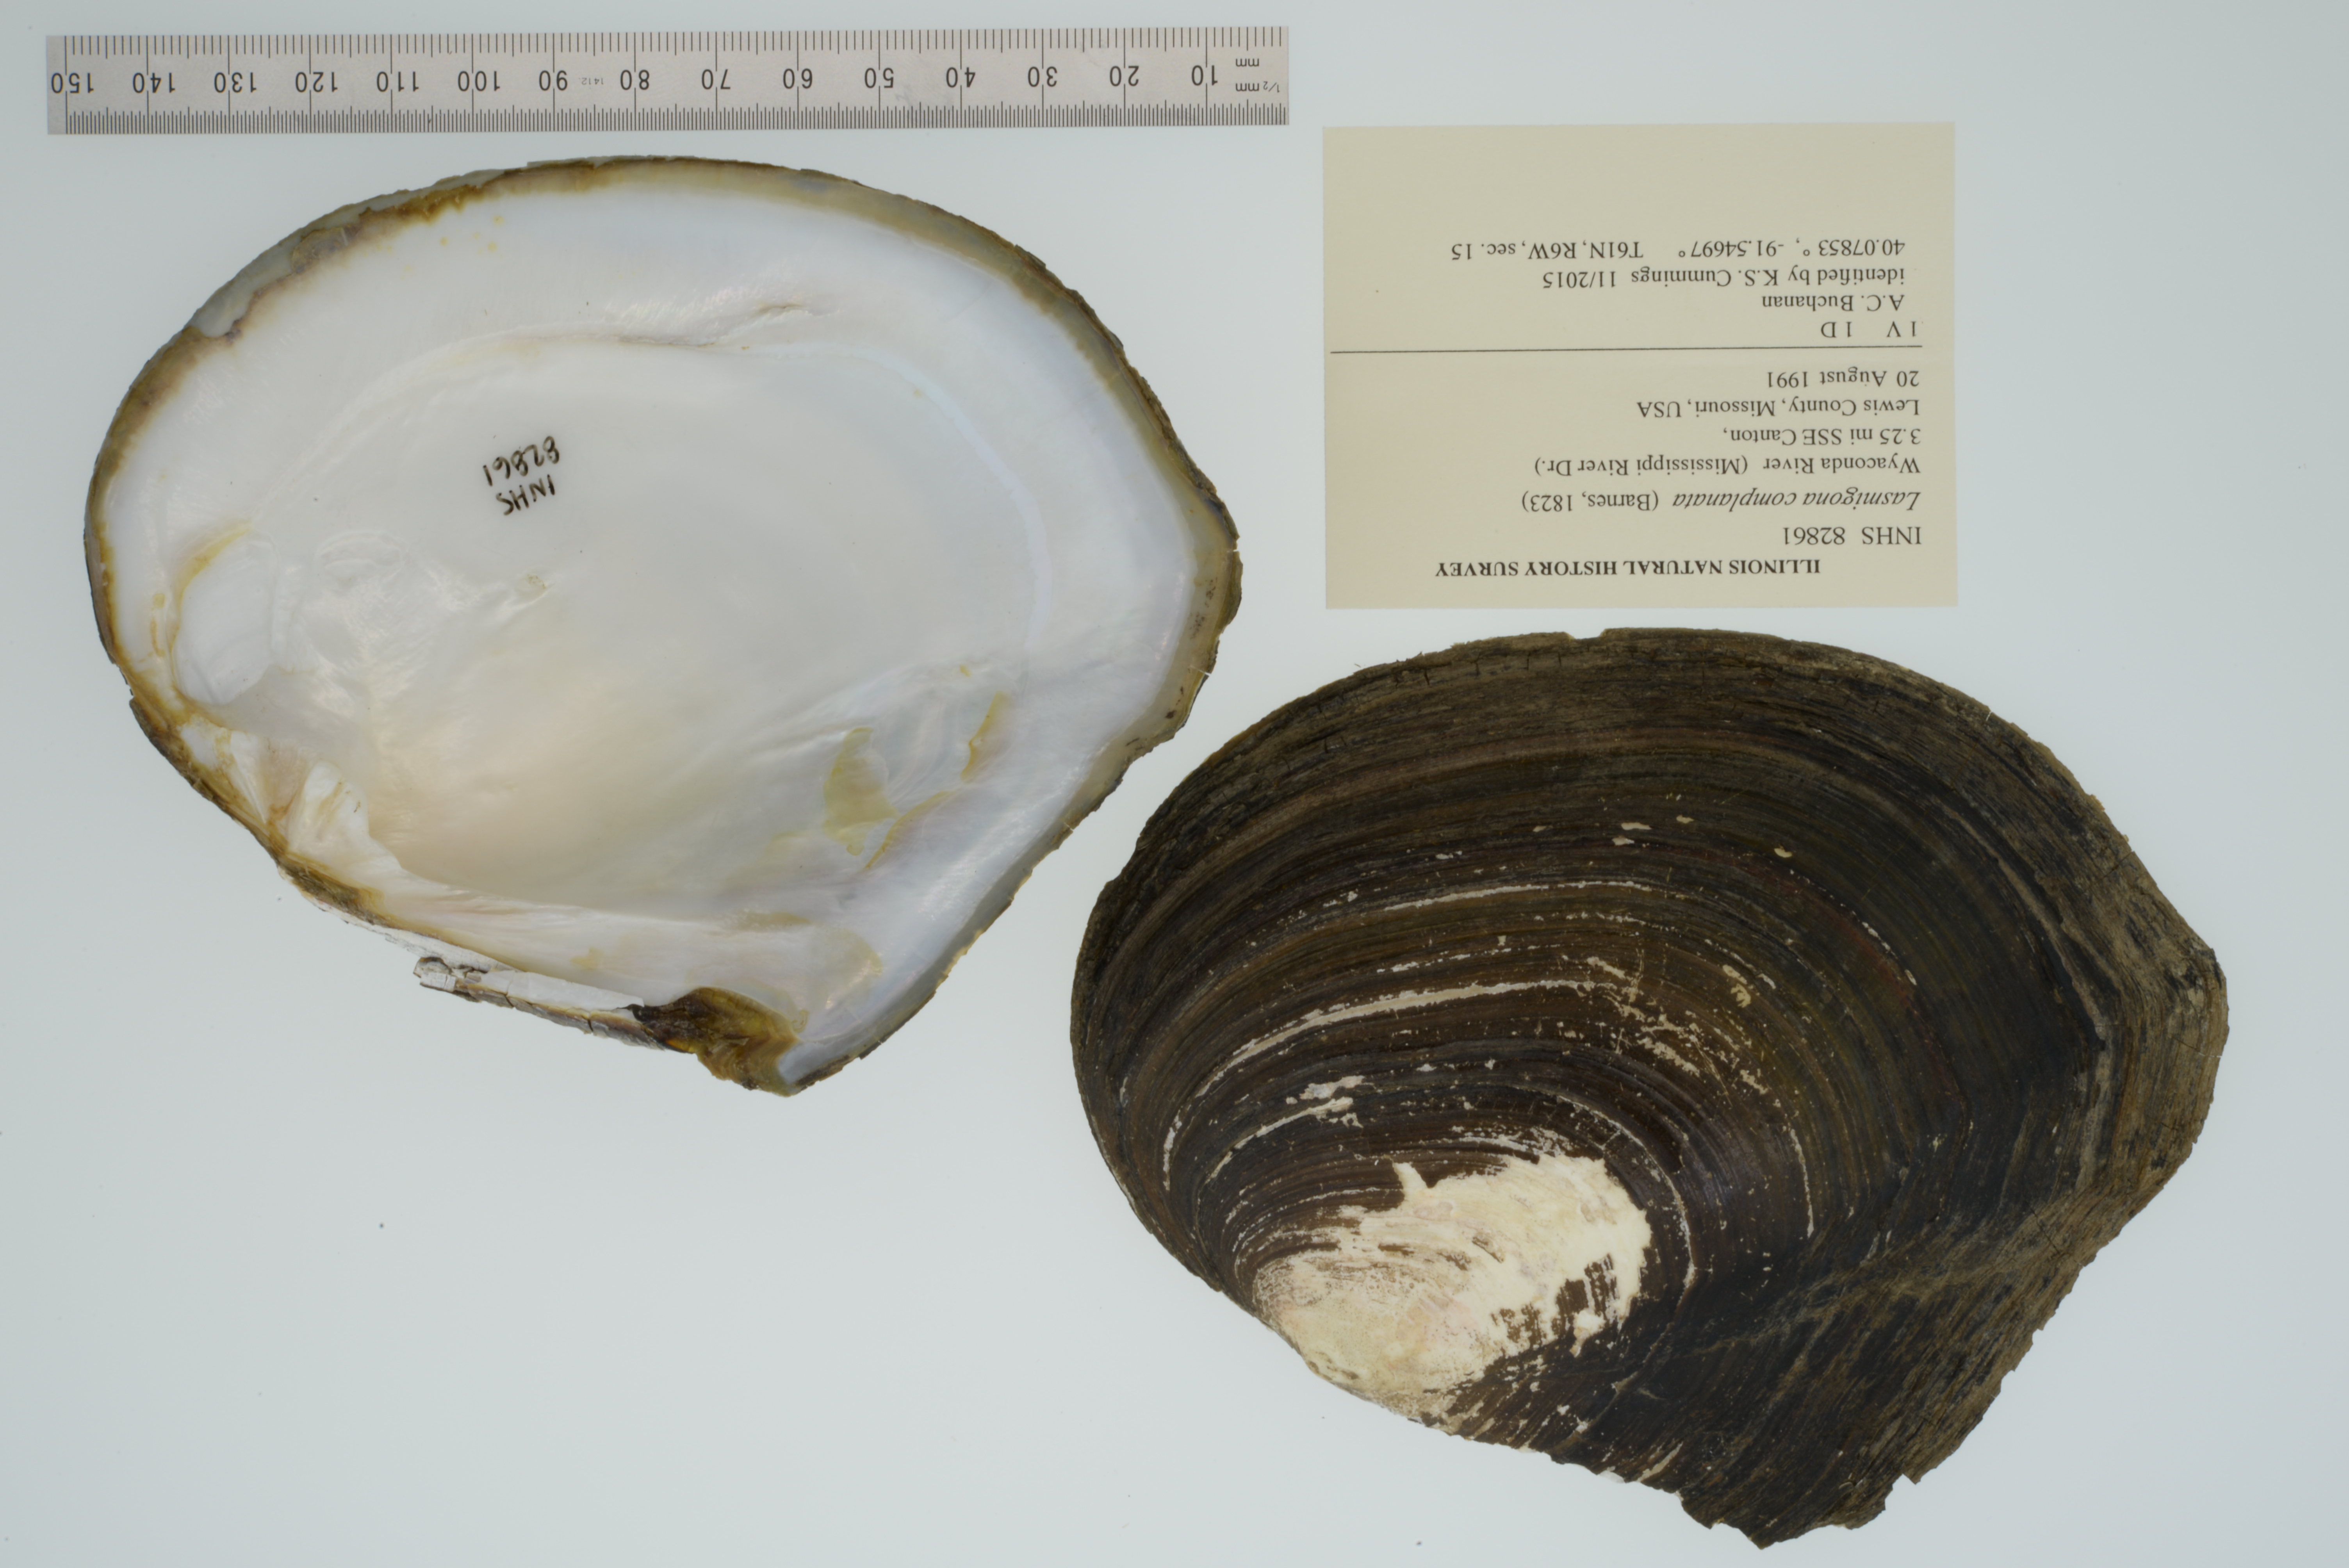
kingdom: Animalia
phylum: Mollusca
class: Bivalvia
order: Unionida
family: Unionidae
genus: Lasmigona
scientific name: Lasmigona complanata
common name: White heelsplitter
